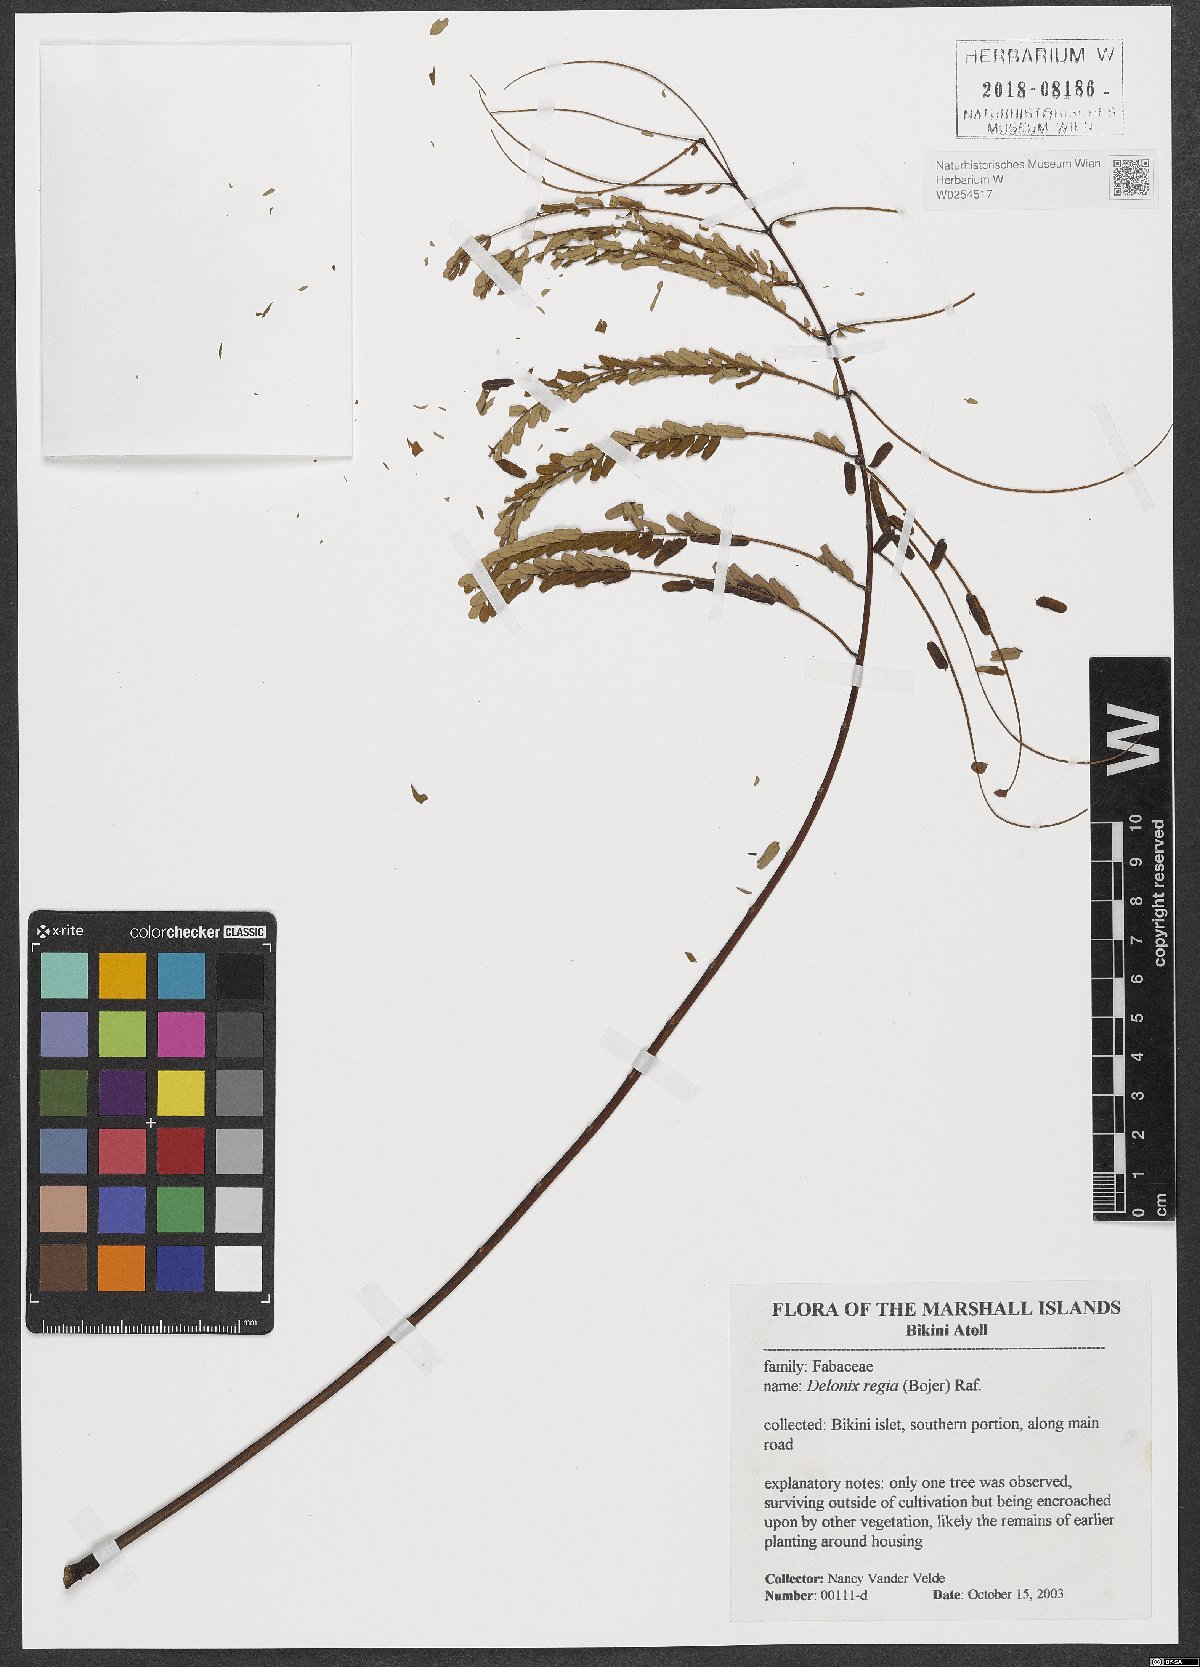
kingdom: Plantae
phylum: Tracheophyta
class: Magnoliopsida
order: Fabales
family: Fabaceae
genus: Delonix
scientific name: Delonix regia
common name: Royal poinciana
